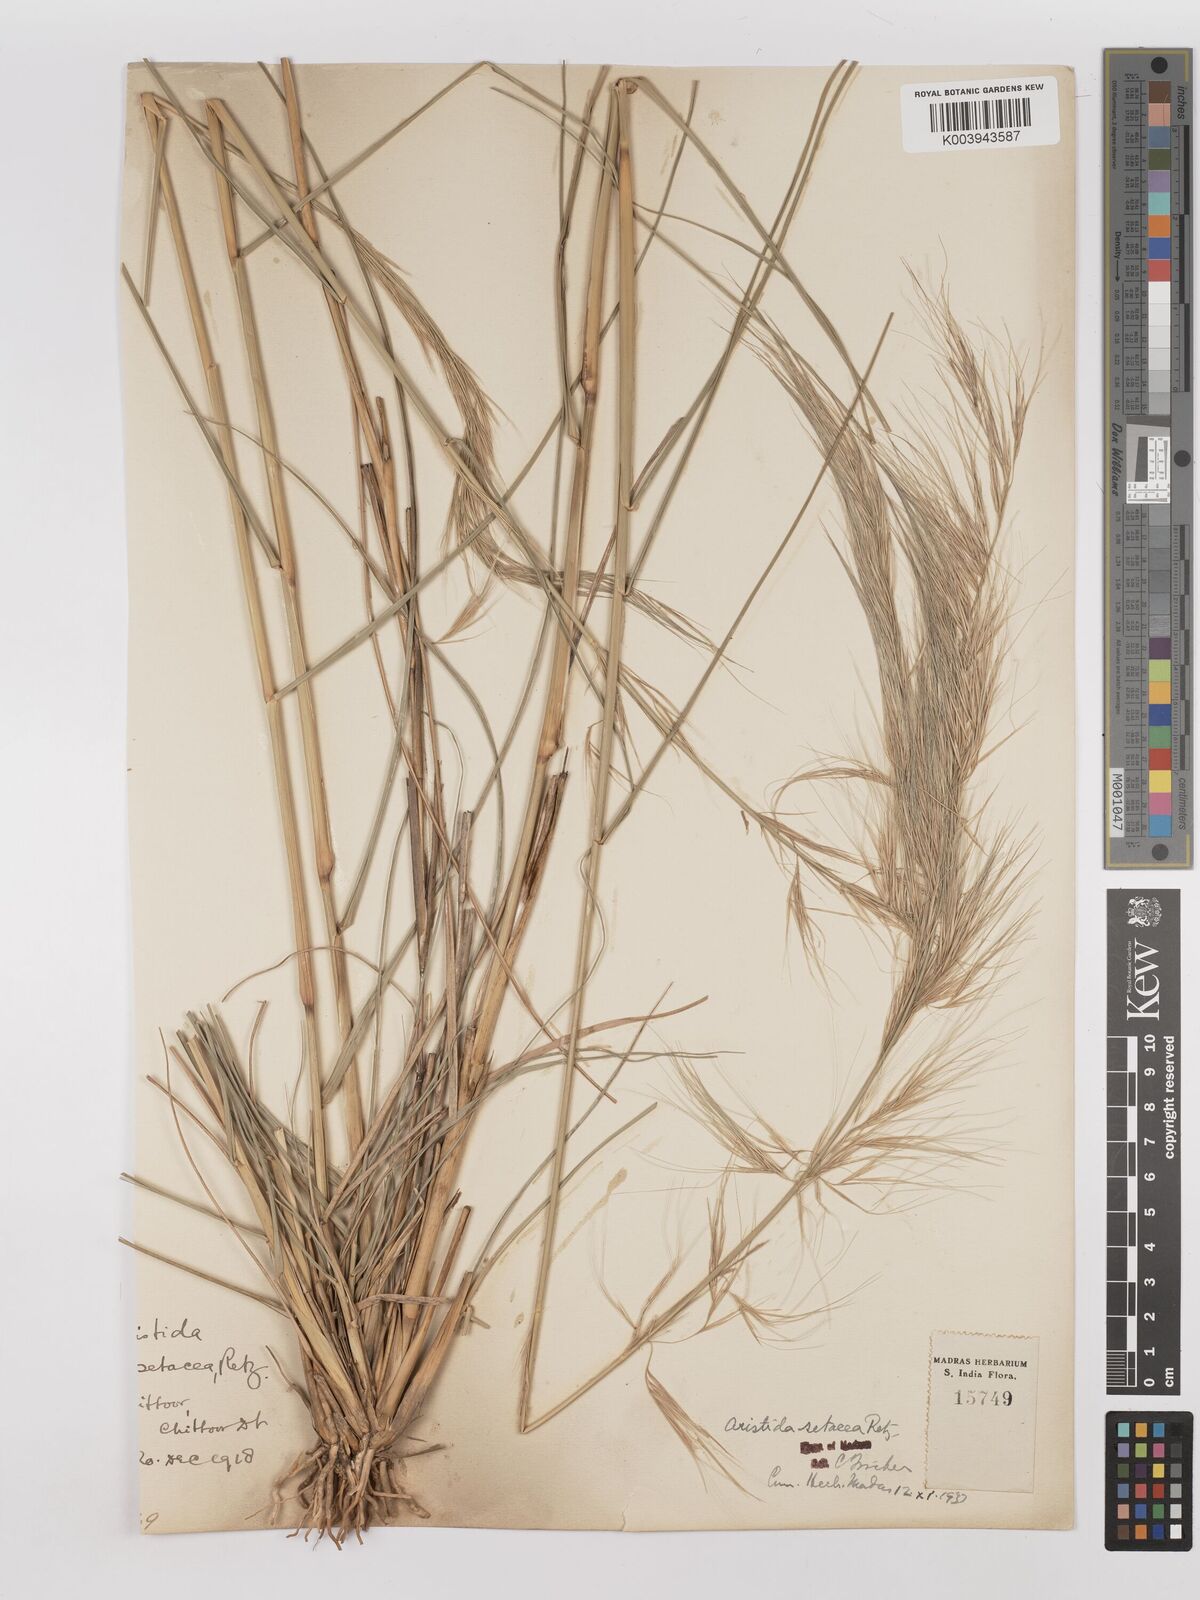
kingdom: Plantae
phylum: Tracheophyta
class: Liliopsida
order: Poales
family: Poaceae
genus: Aristida
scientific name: Aristida setacea
